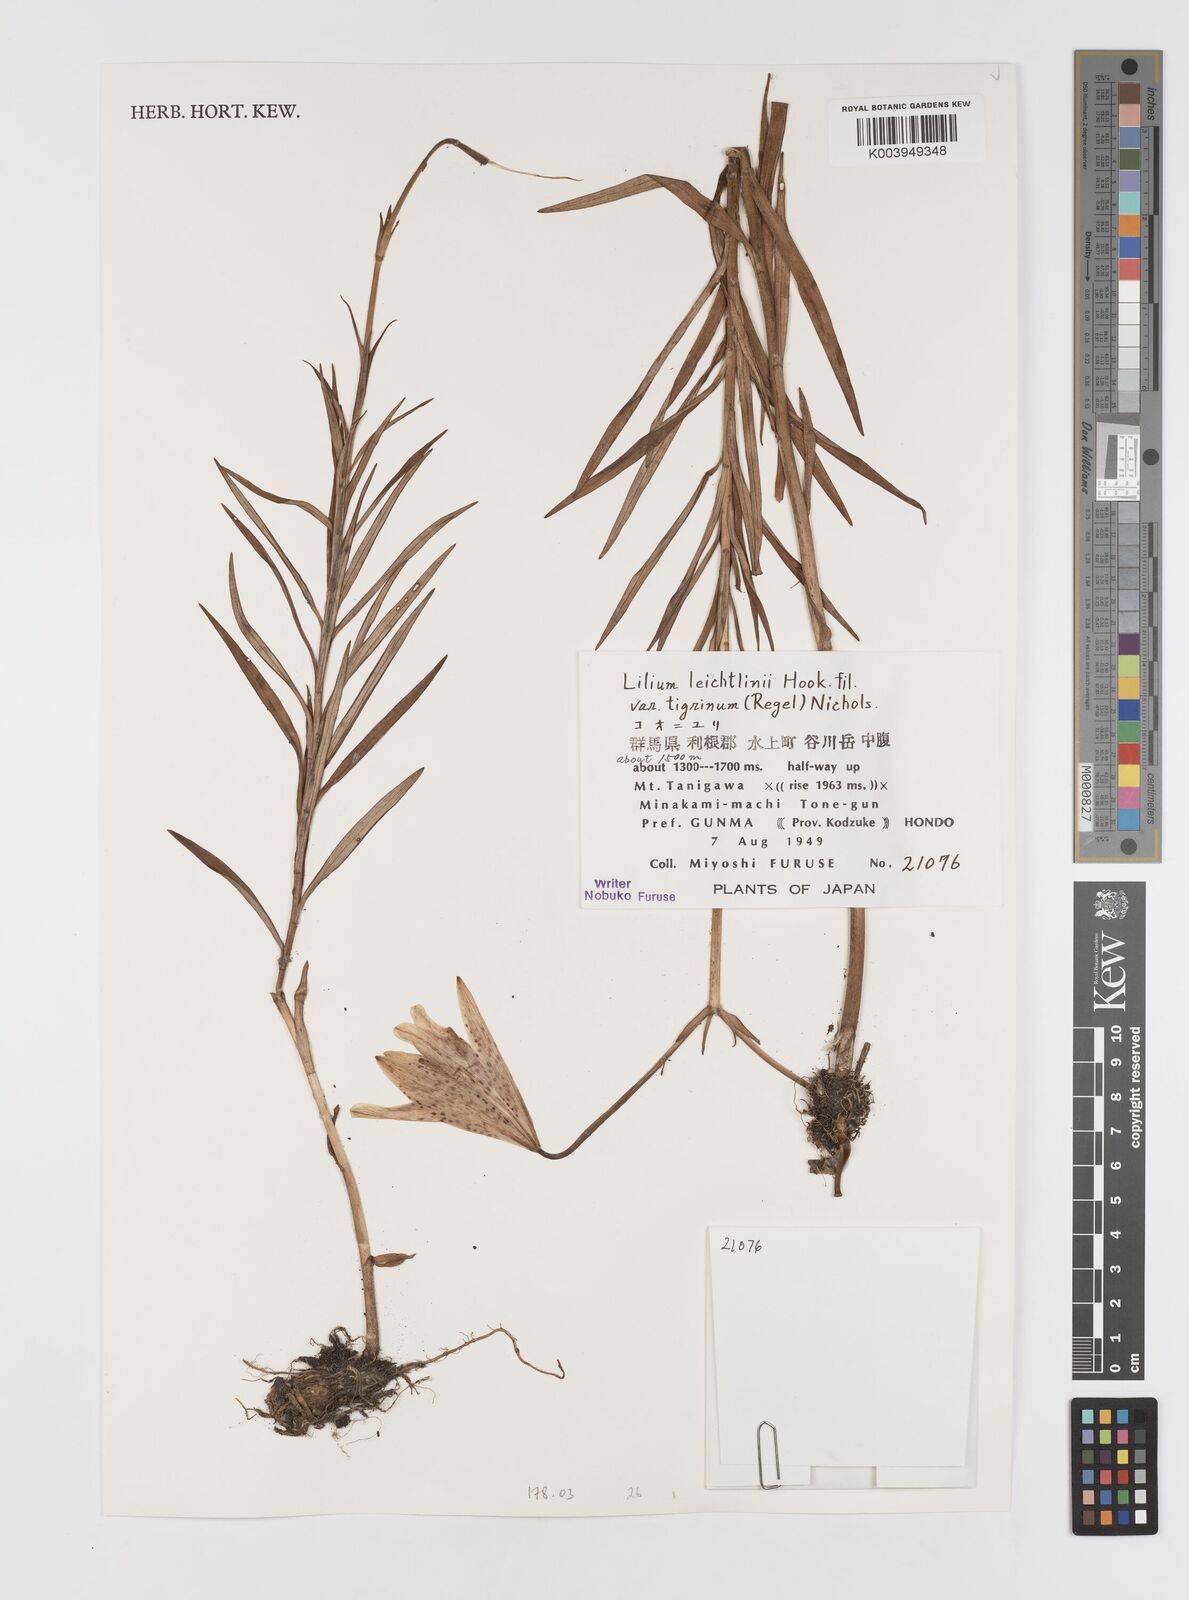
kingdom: Plantae
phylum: Tracheophyta
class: Liliopsida
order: Liliales
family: Liliaceae
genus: Lilium
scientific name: Lilium leichtlinii
